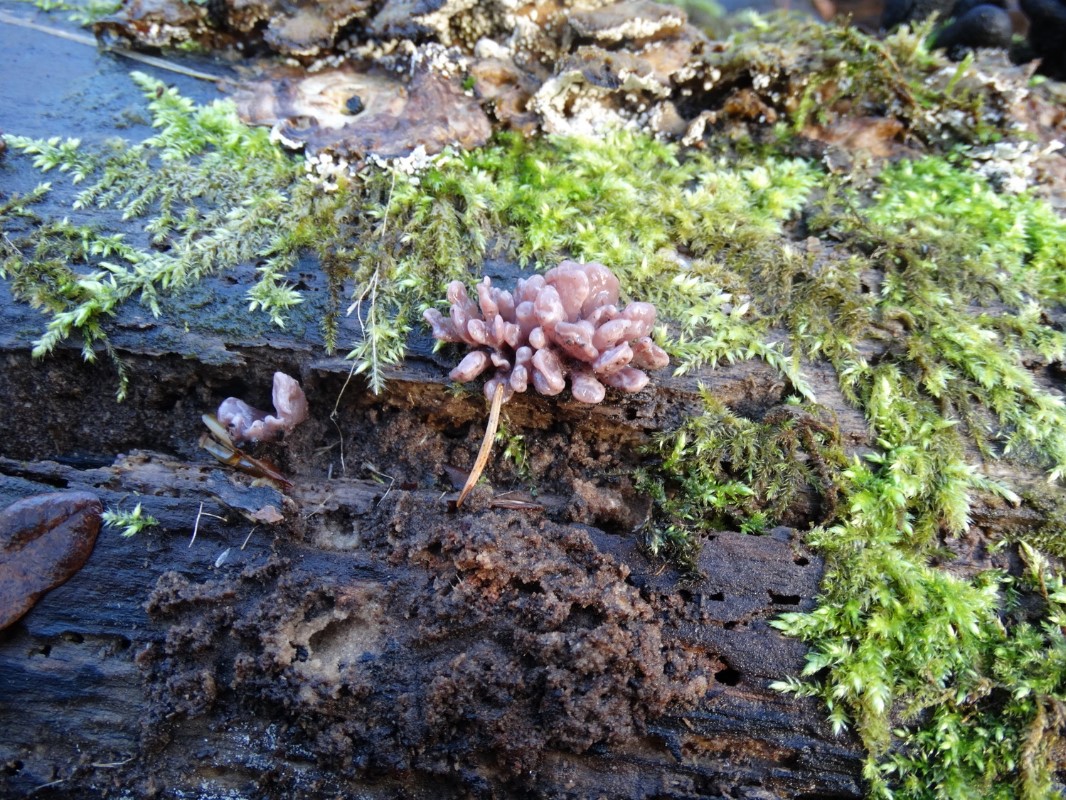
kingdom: Fungi
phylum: Ascomycota
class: Leotiomycetes
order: Helotiales
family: Gelatinodiscaceae
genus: Ascocoryne
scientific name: Ascocoryne sarcoides
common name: rødlilla sejskive
